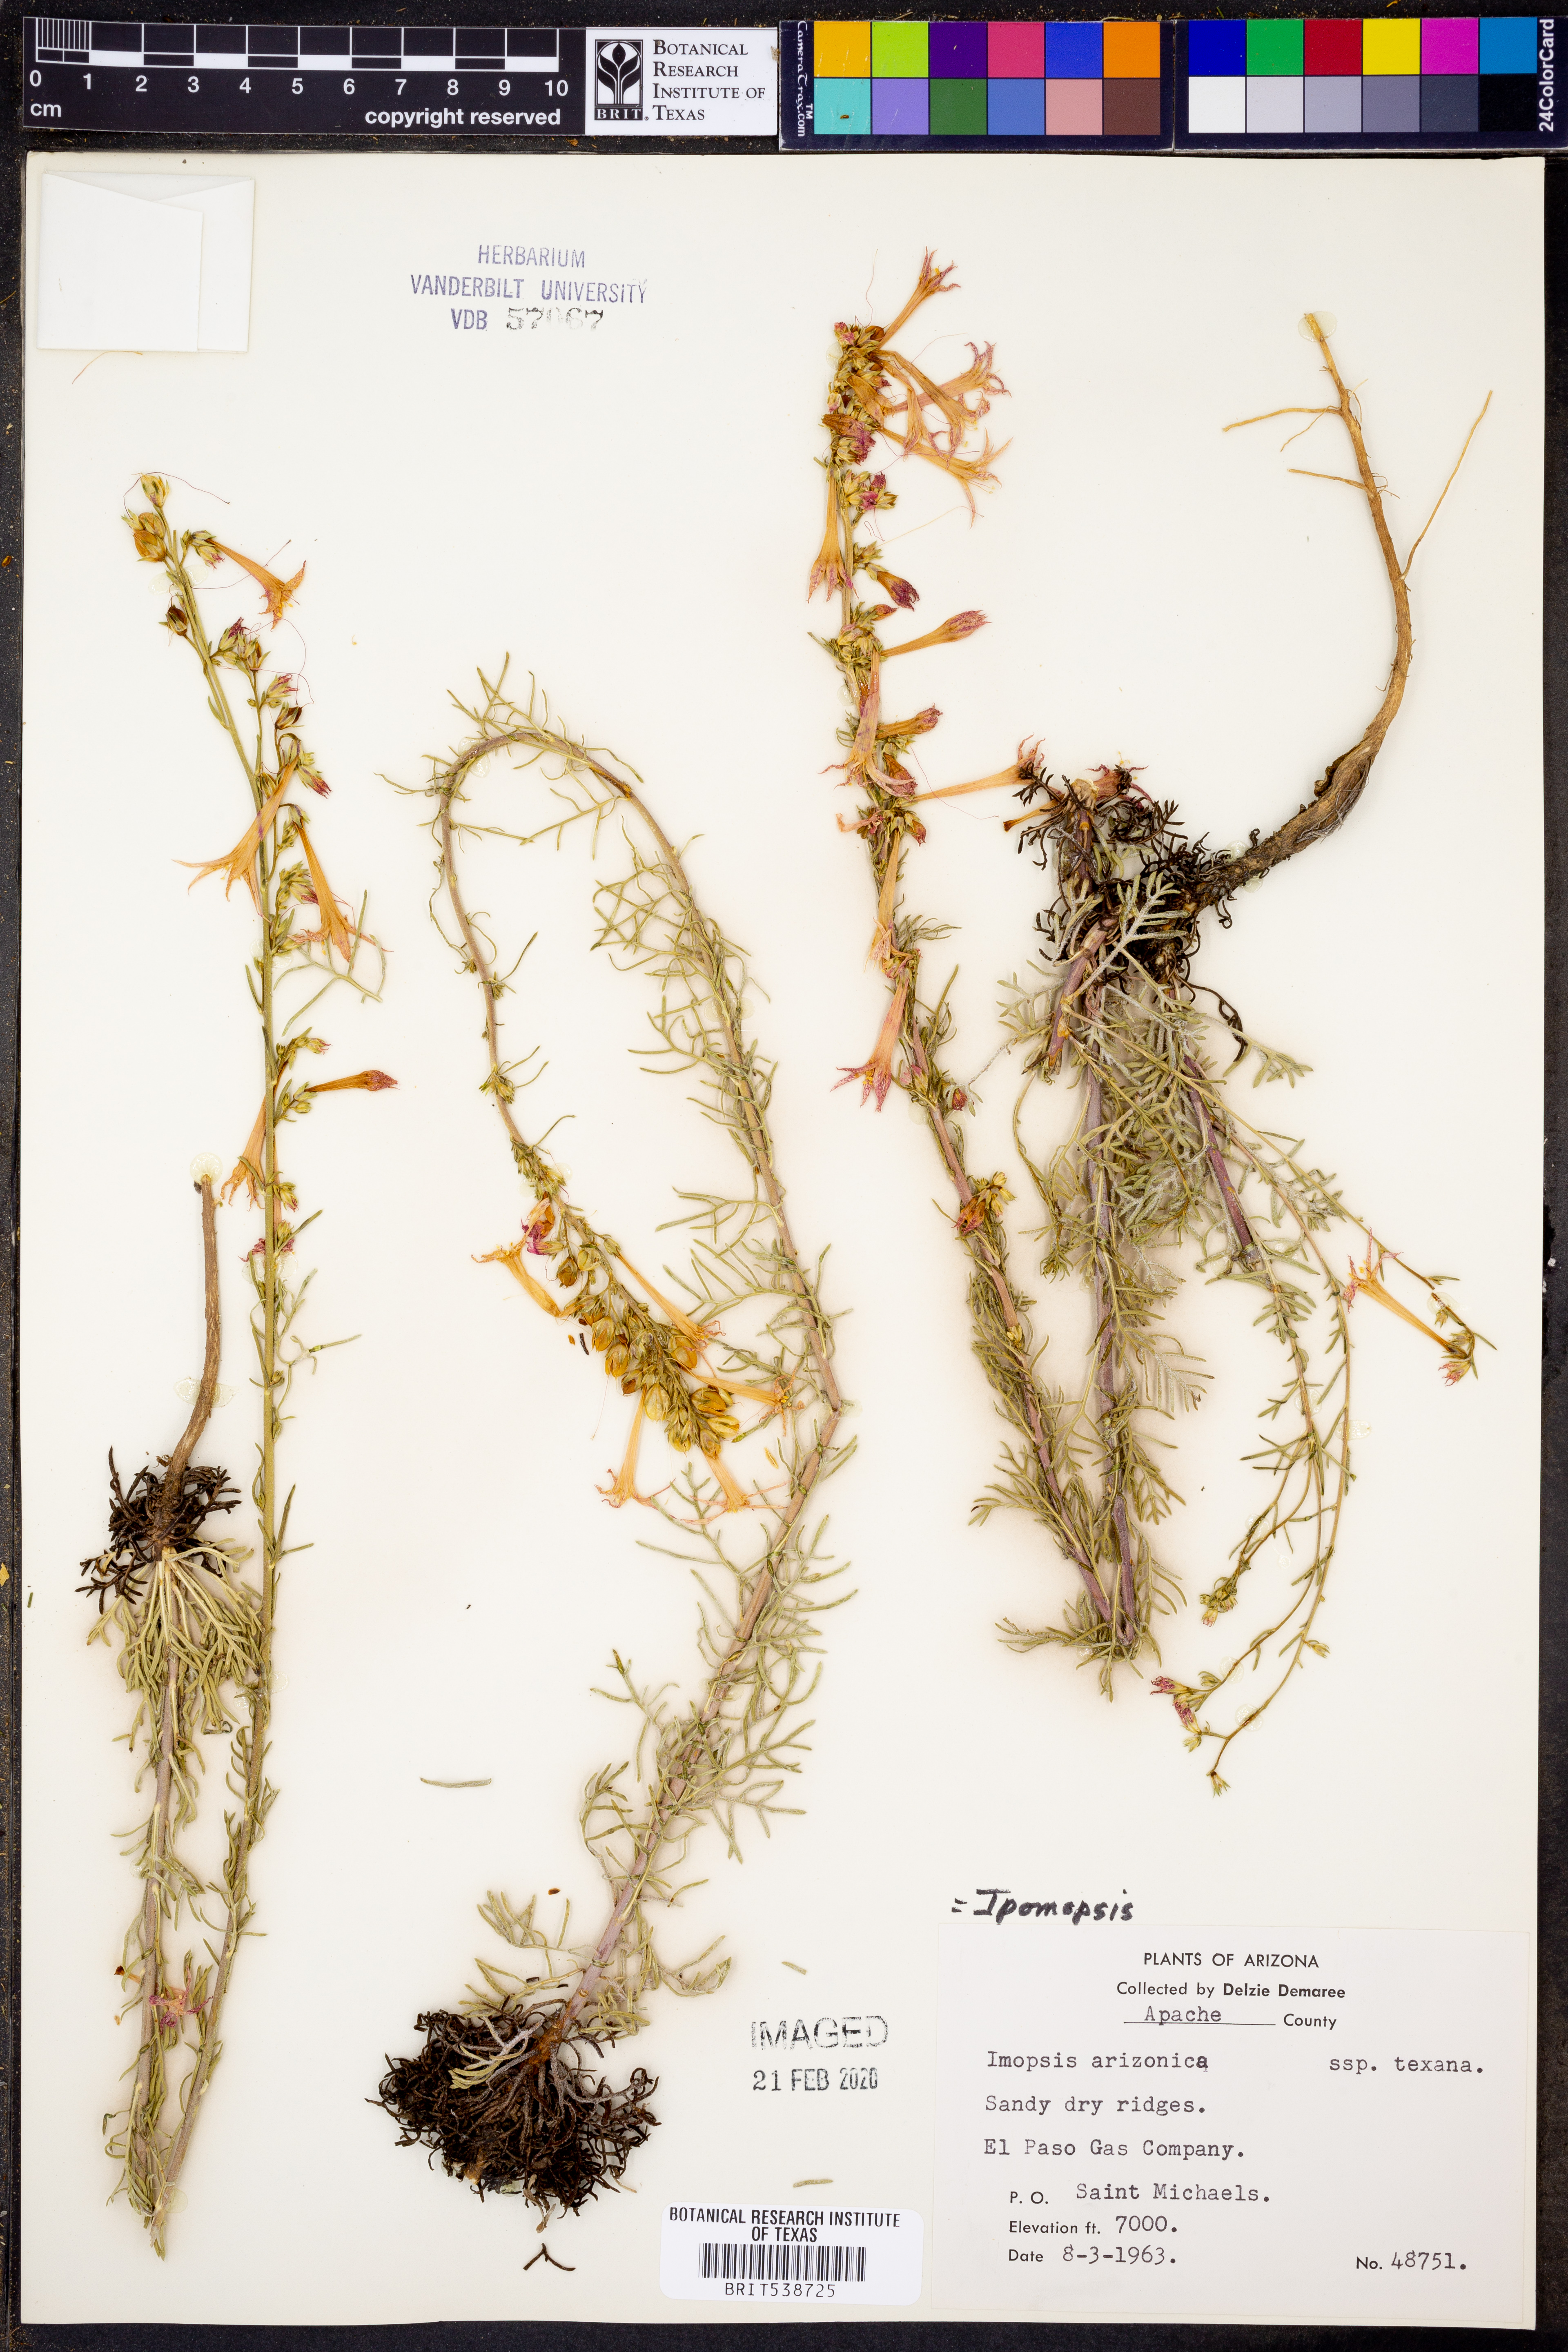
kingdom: Plantae
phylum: Tracheophyta
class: Magnoliopsida
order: Ericales
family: Polemoniaceae
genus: Ipomopsis
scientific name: Ipomopsis arizonica
